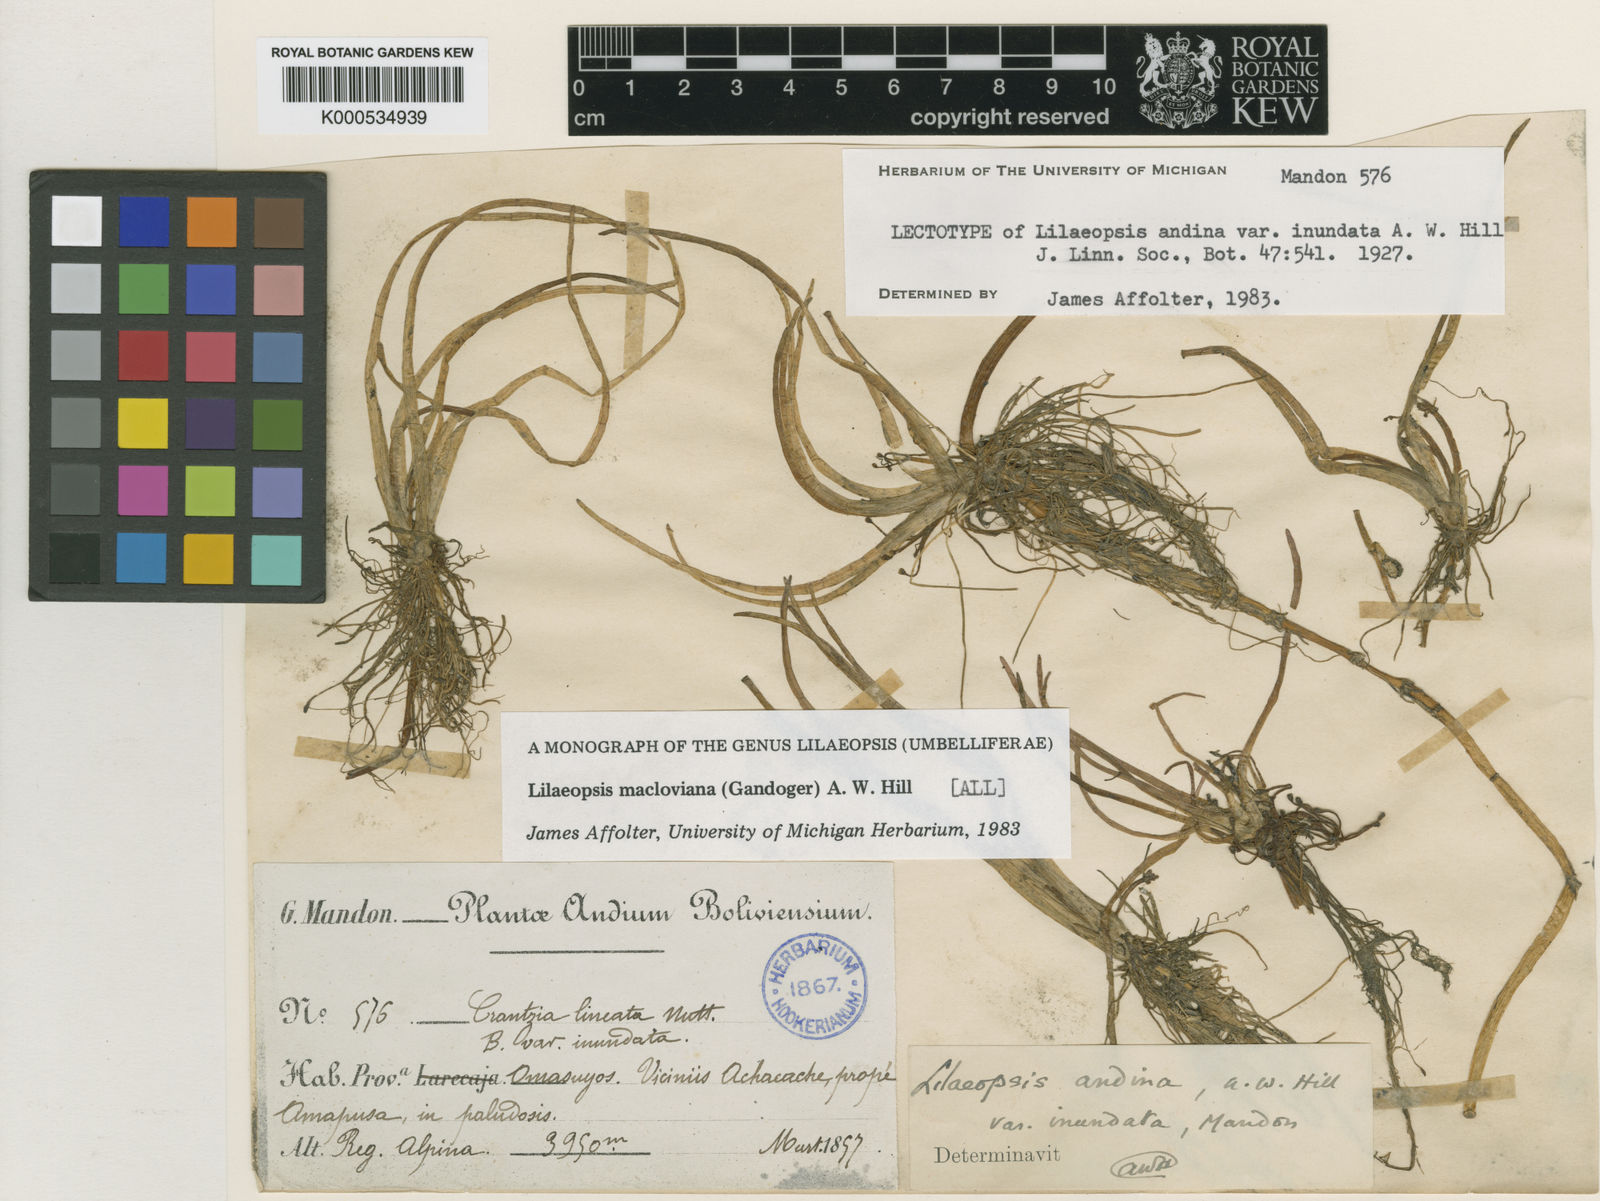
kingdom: Plantae
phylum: Tracheophyta
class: Magnoliopsida
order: Apiales
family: Apiaceae
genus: Lilaeopsis
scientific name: Lilaeopsis macloviana
